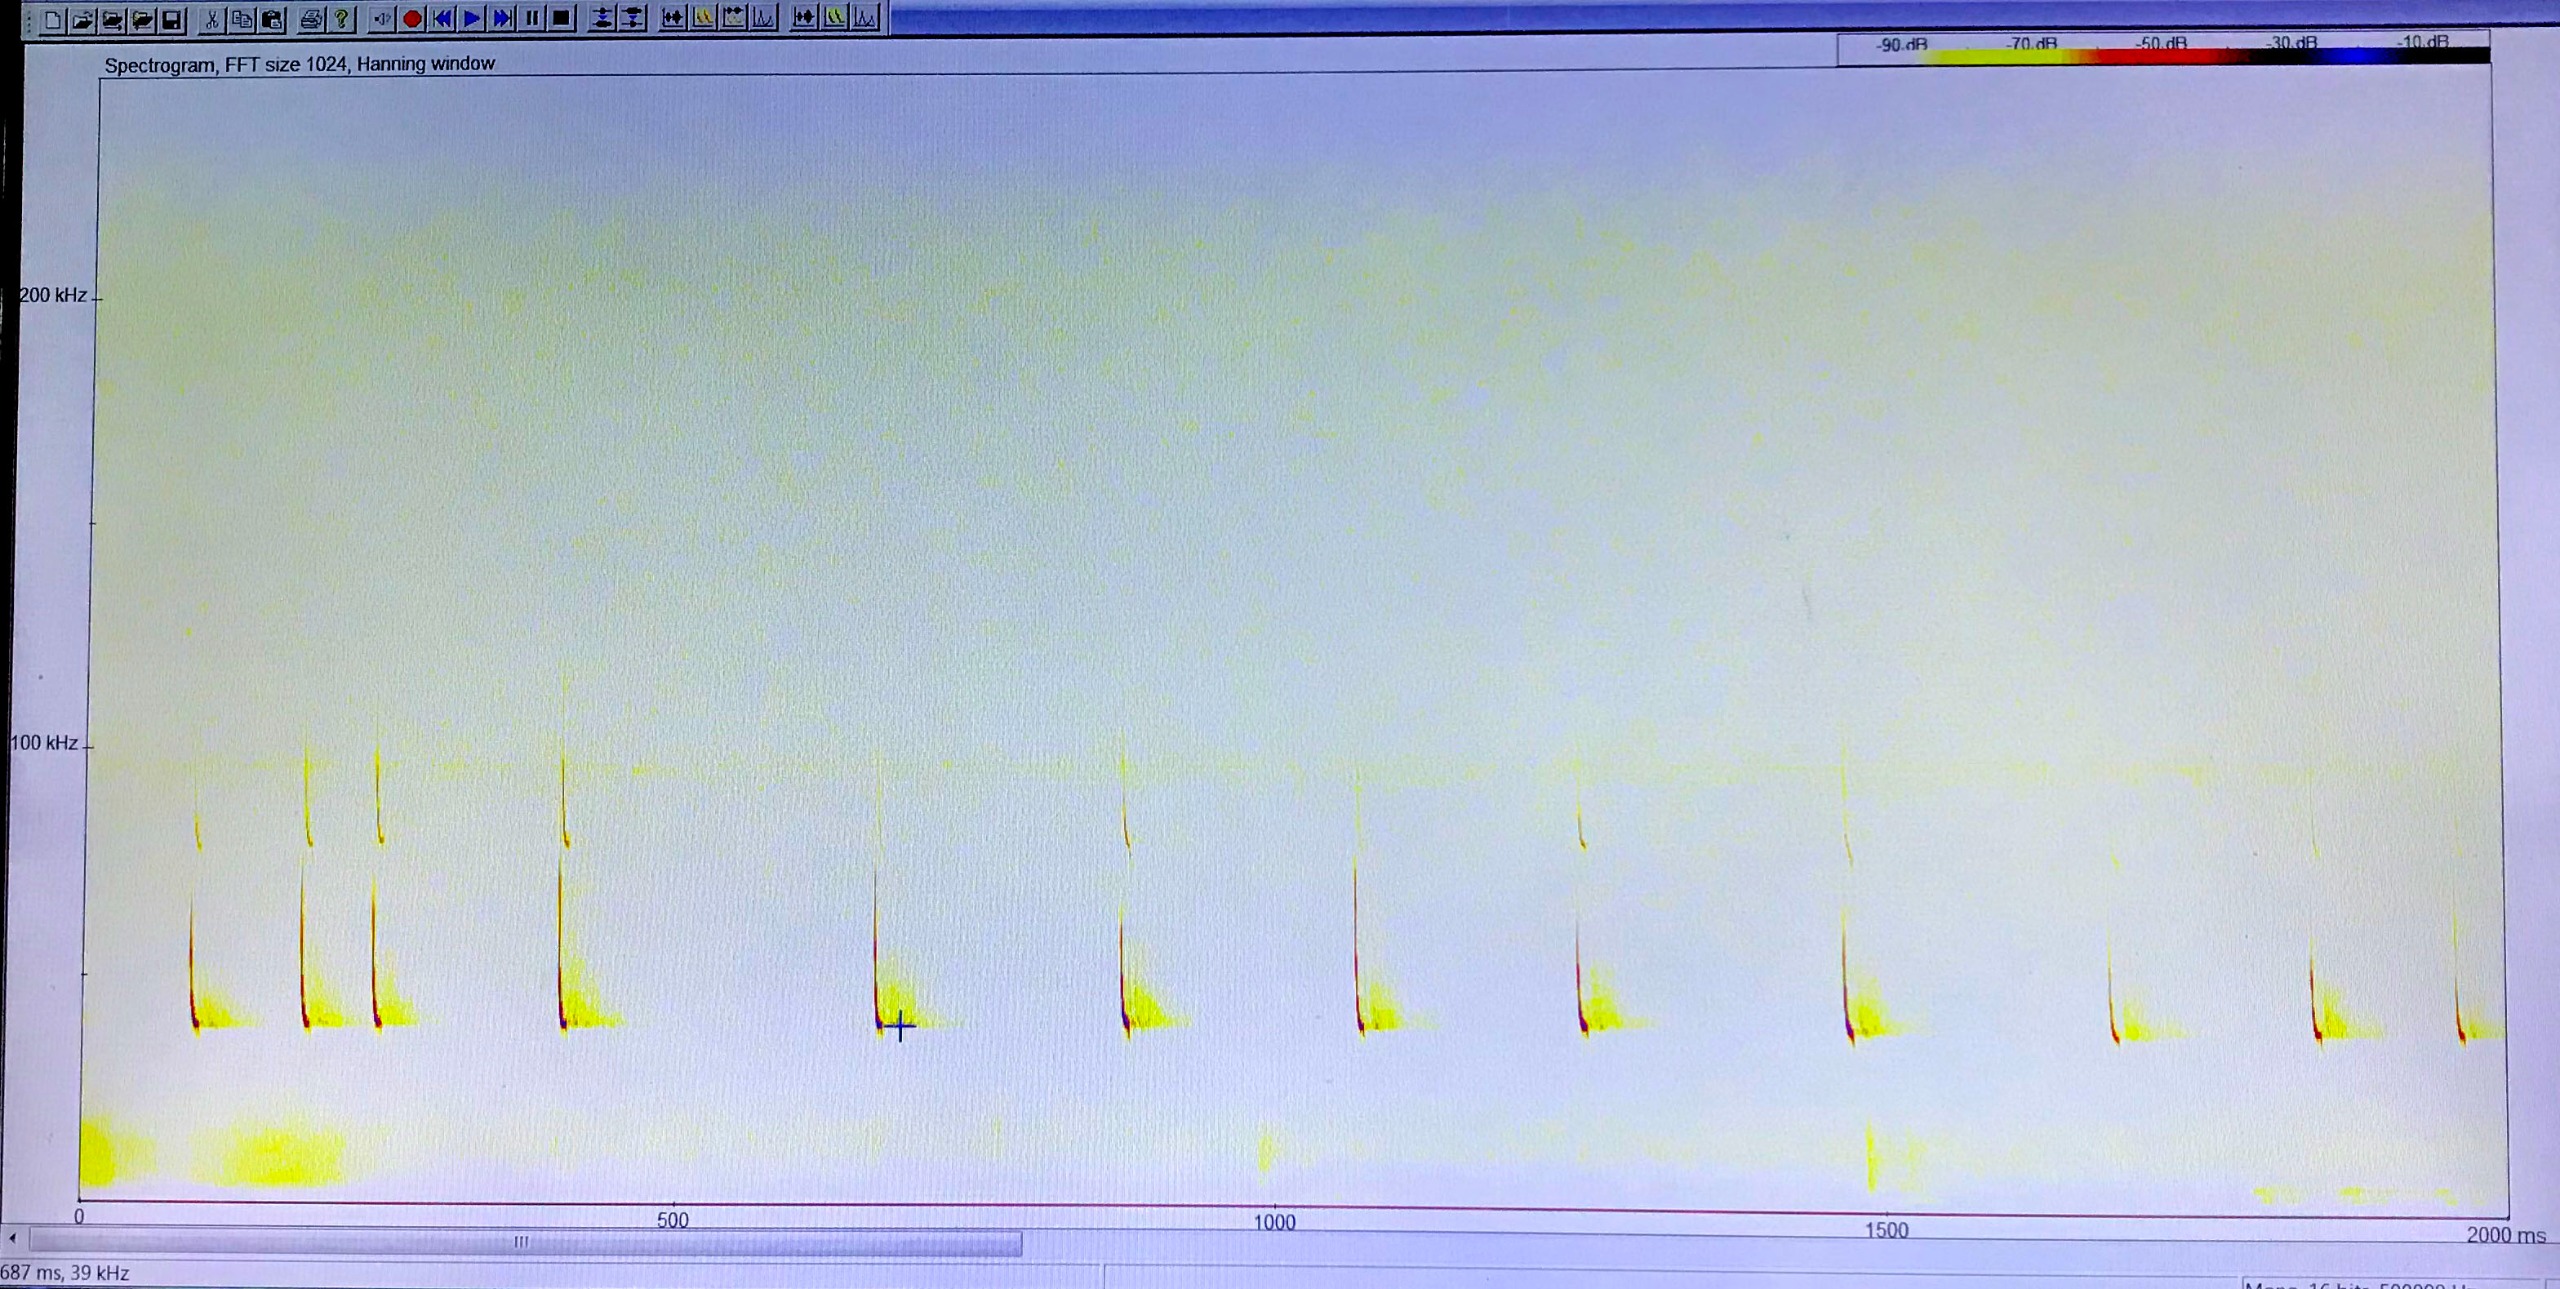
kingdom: Animalia
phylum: Chordata
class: Mammalia
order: Chiroptera
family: Vespertilionidae
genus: Pipistrellus
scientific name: Pipistrellus nathusii
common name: Troldflagermus
